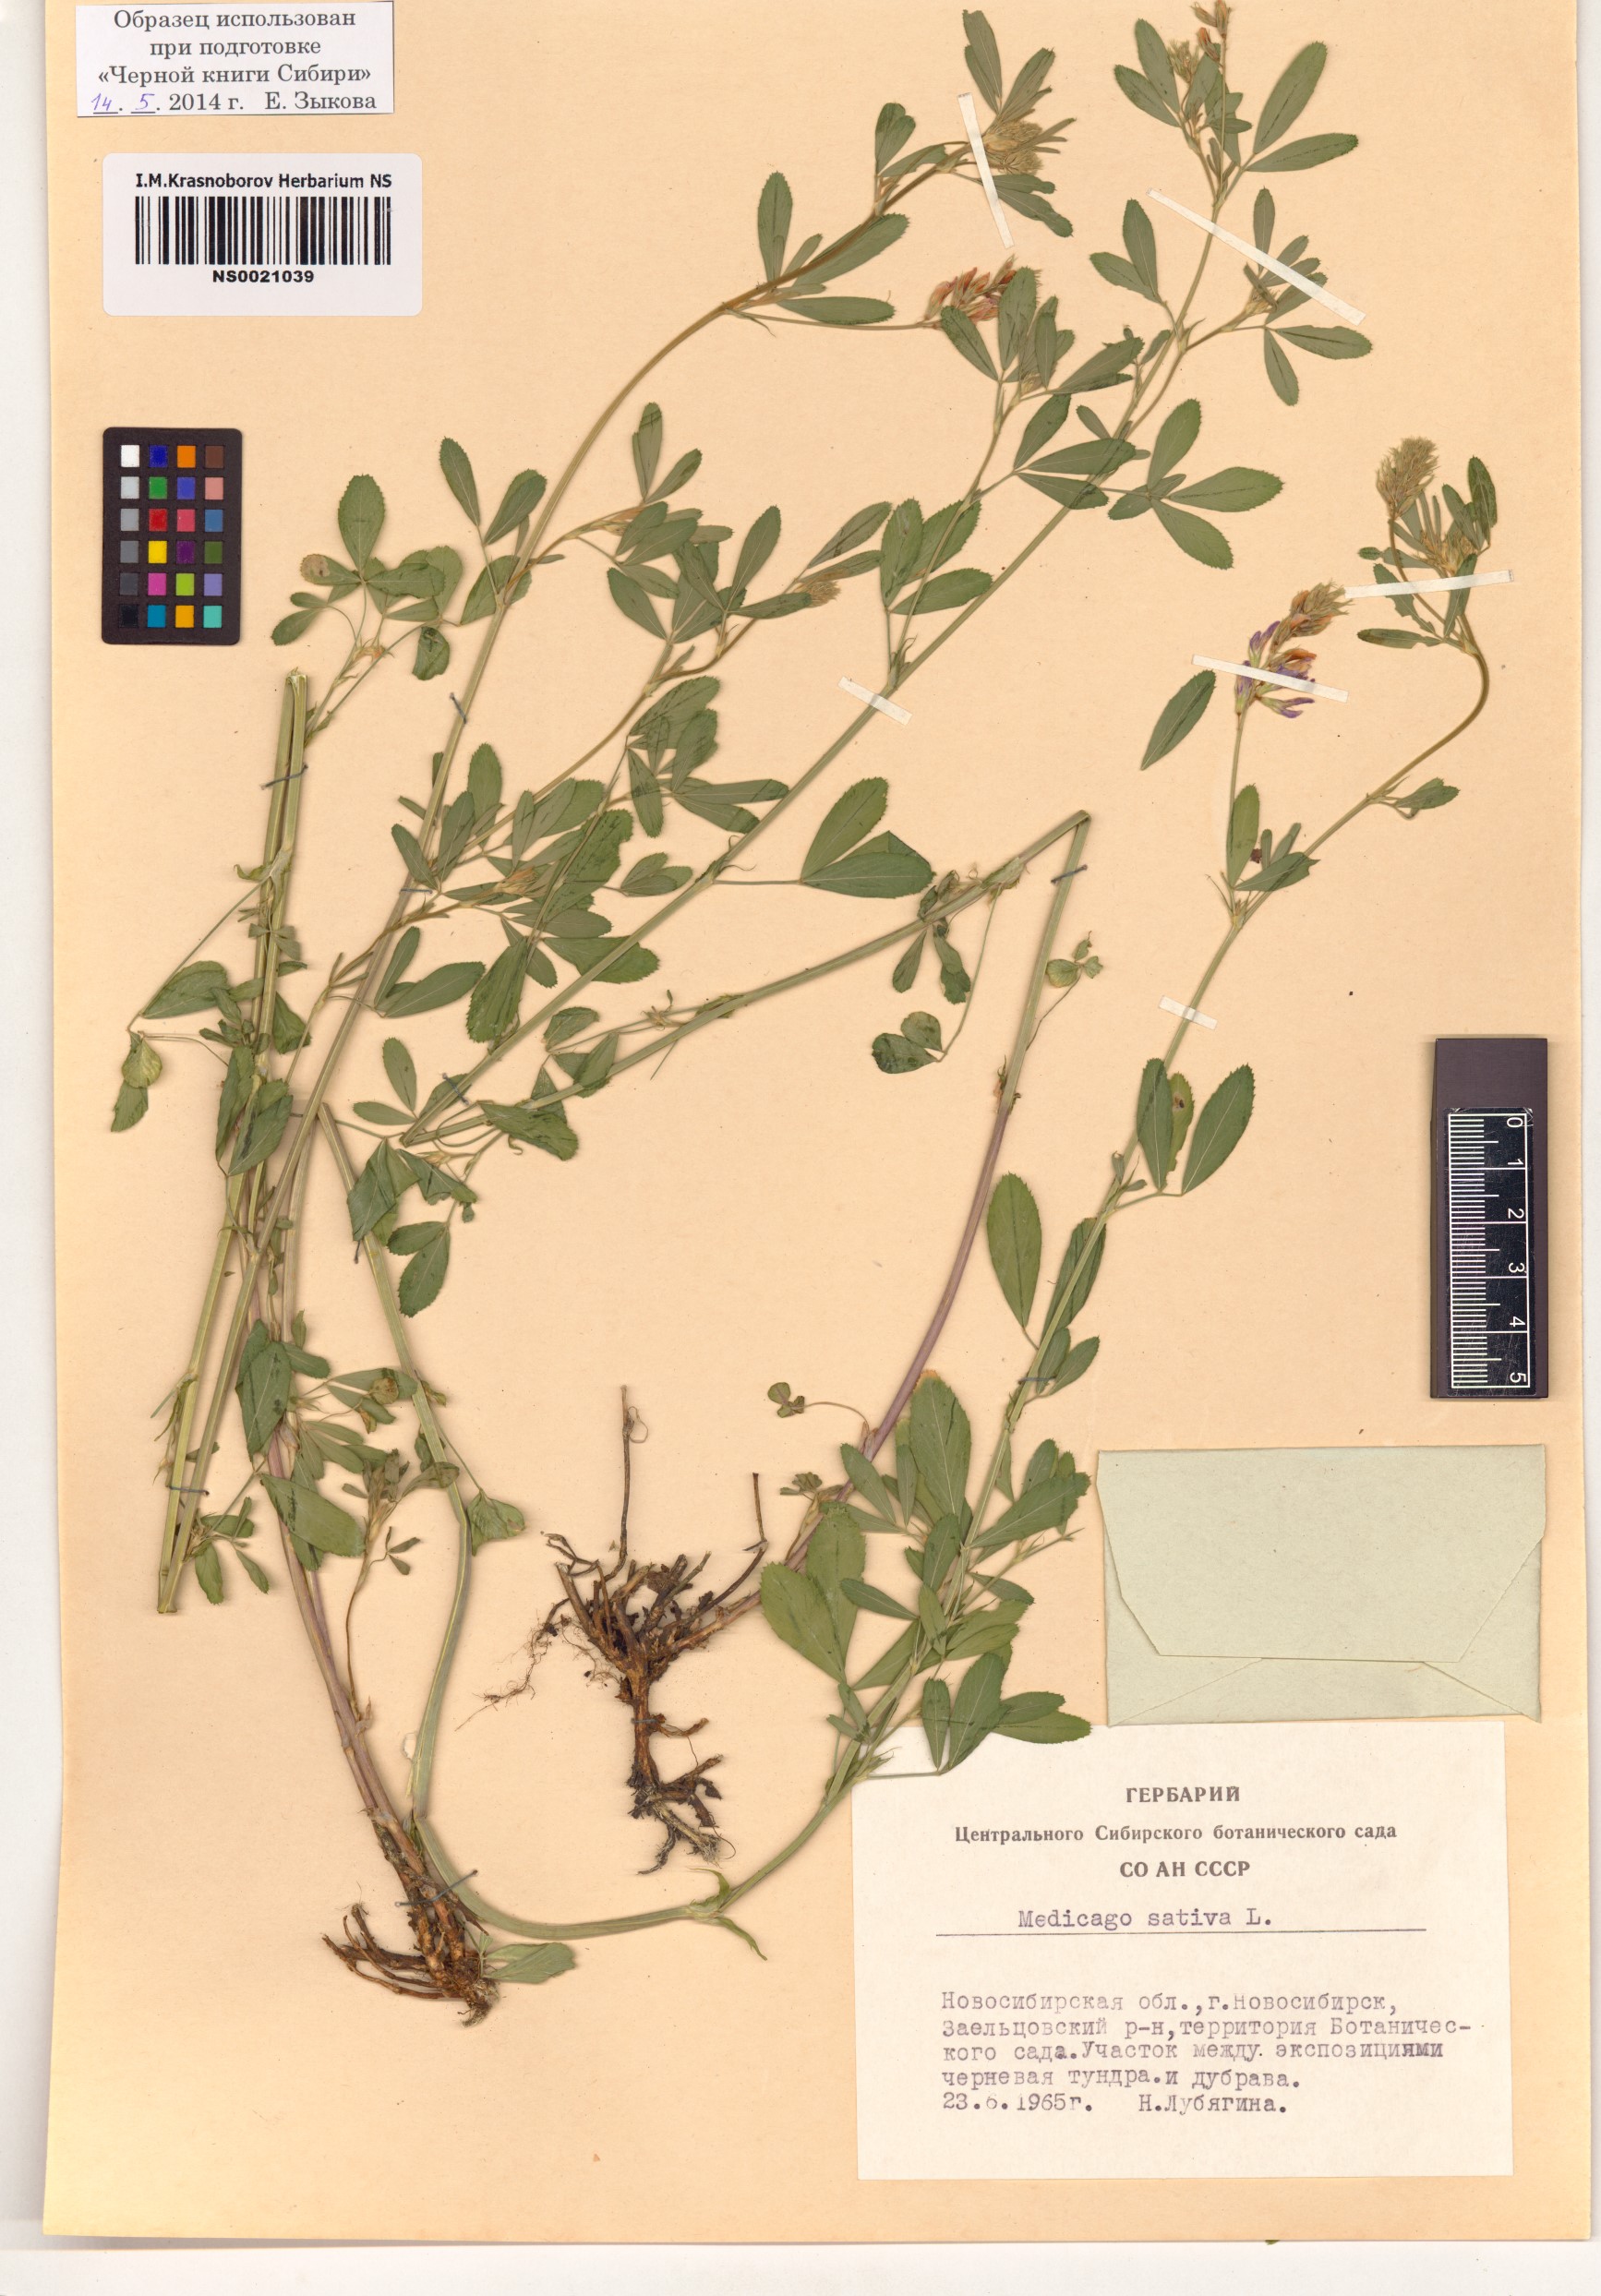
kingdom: Plantae
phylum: Tracheophyta
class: Magnoliopsida
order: Fabales
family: Fabaceae
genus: Medicago
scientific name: Medicago sativa
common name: Alfalfa
